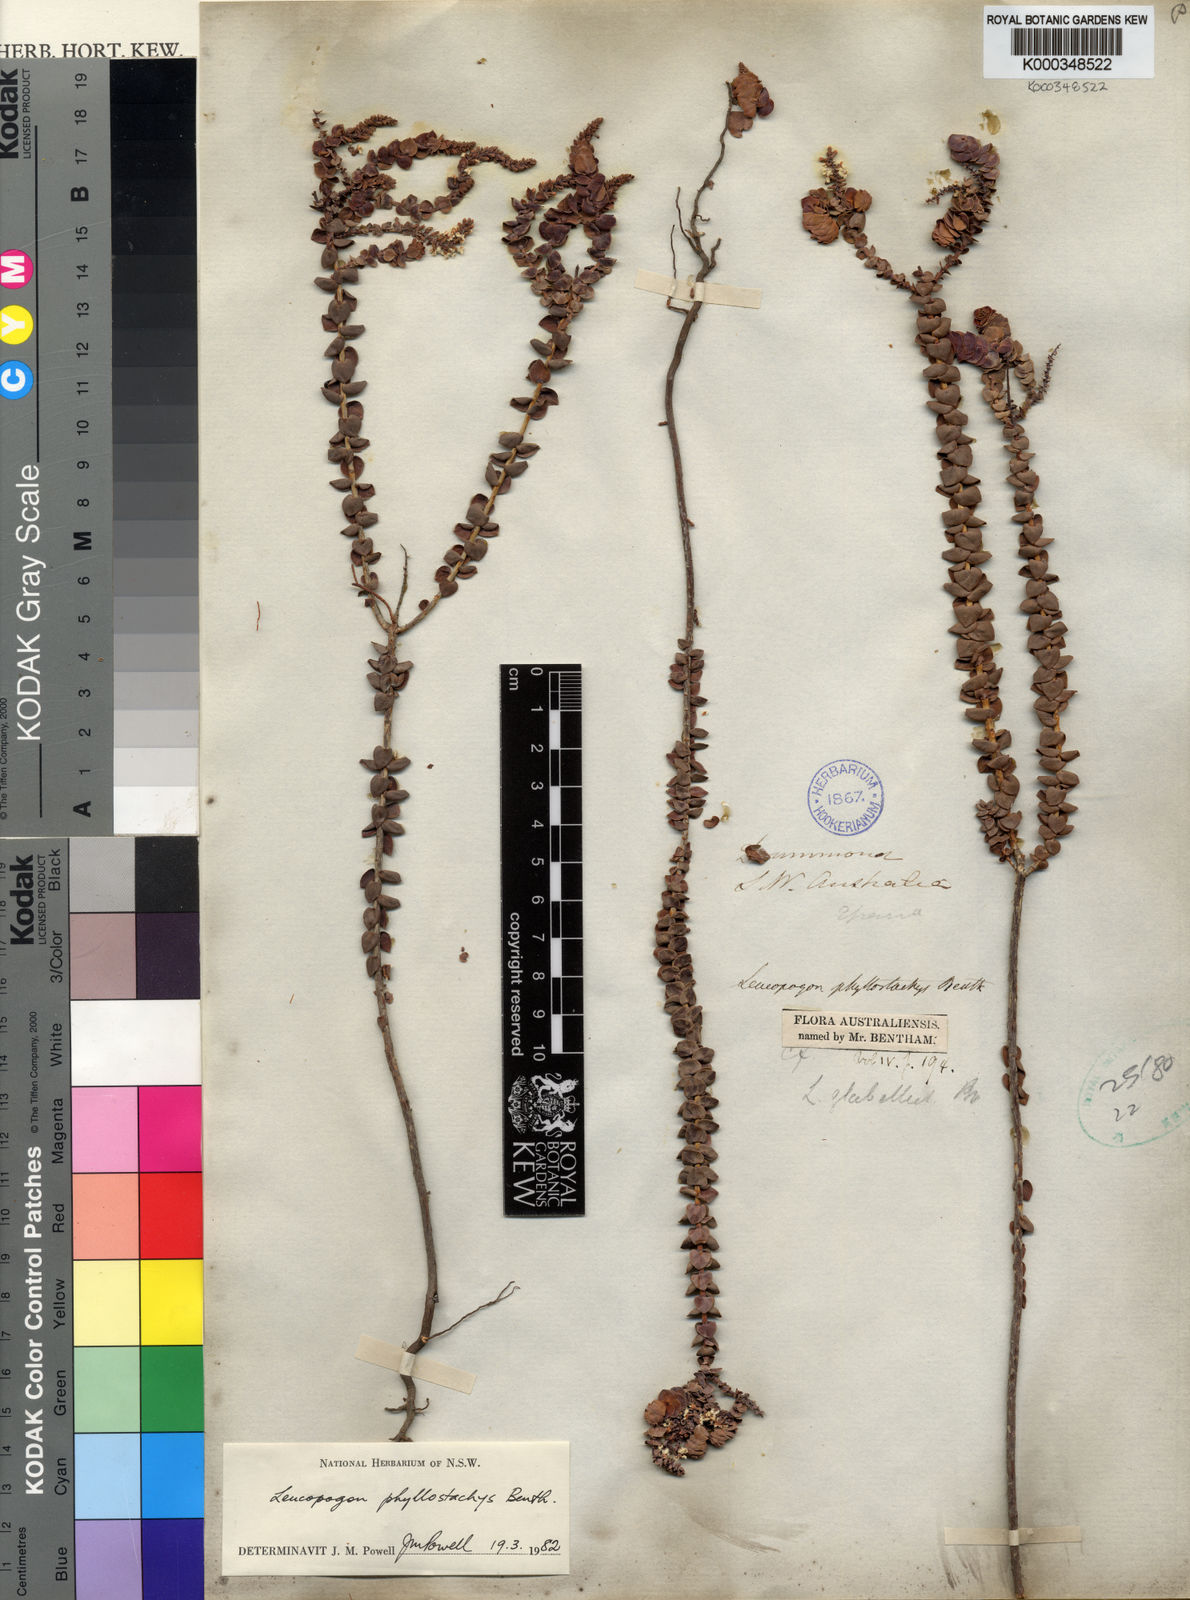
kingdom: Plantae
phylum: Tracheophyta
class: Magnoliopsida
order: Ericales
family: Ericaceae
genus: Leucopogon
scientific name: Leucopogon phyllostachys
